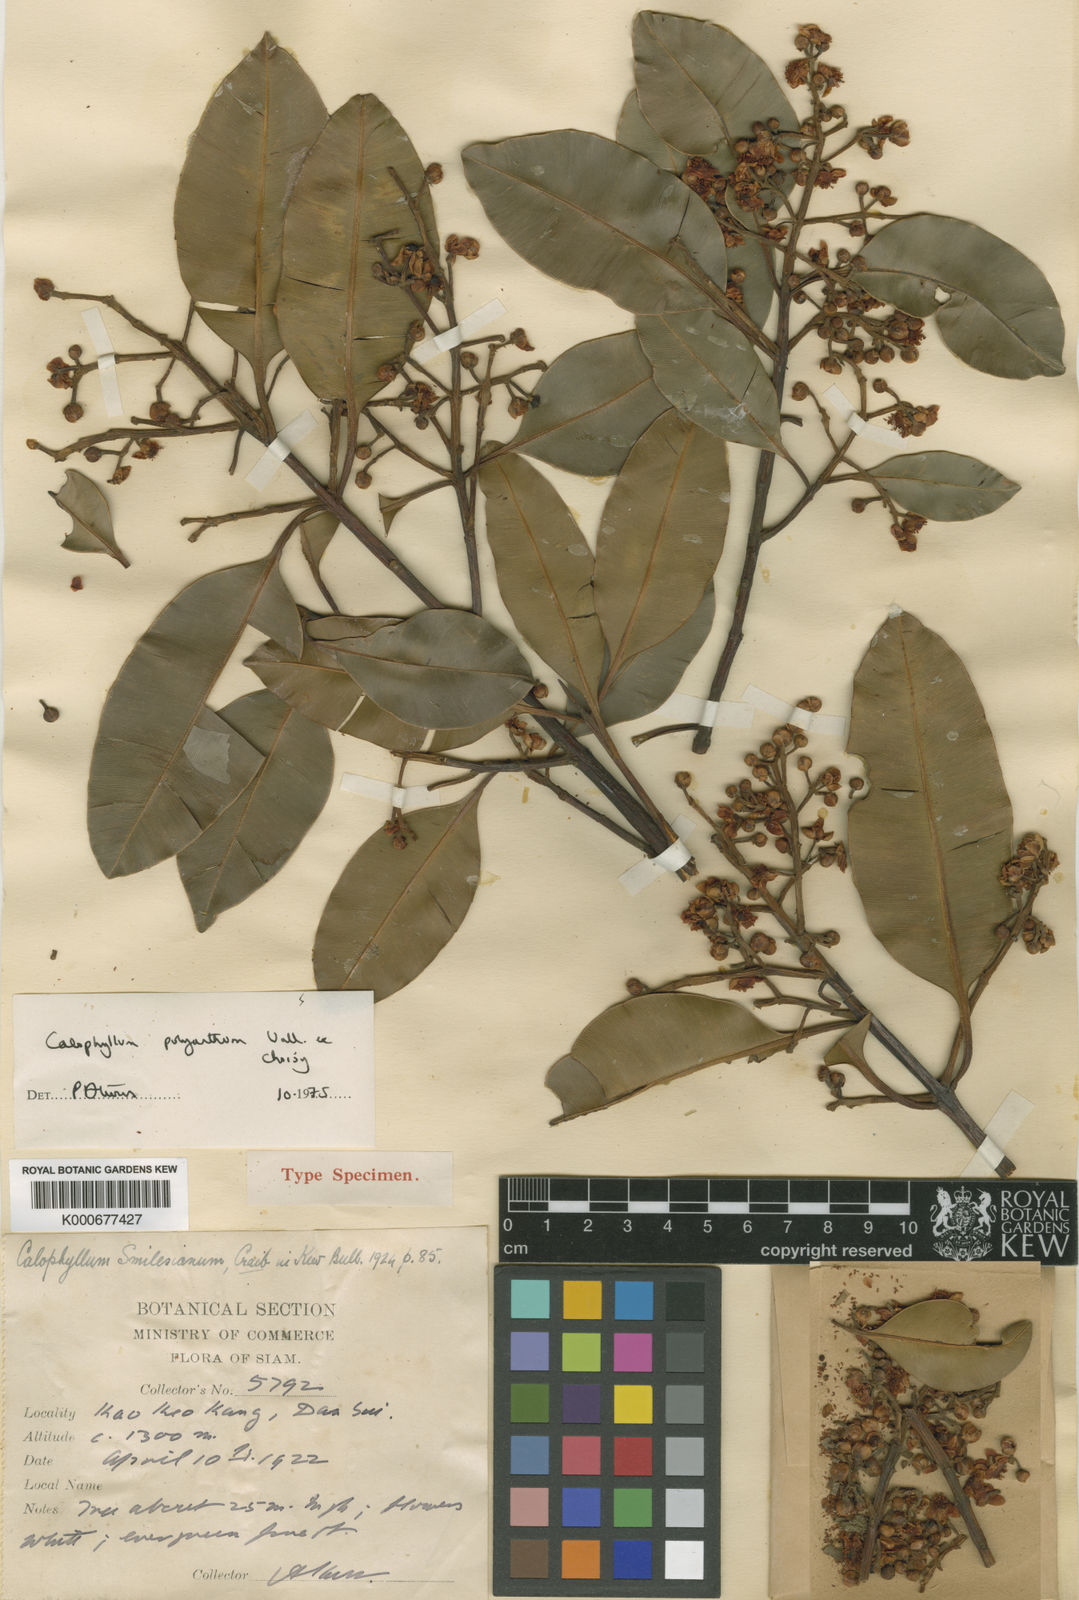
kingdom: Plantae
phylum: Tracheophyta
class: Magnoliopsida
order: Malpighiales
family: Calophyllaceae
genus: Calophyllum
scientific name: Calophyllum polyanthum
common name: Poonspar
